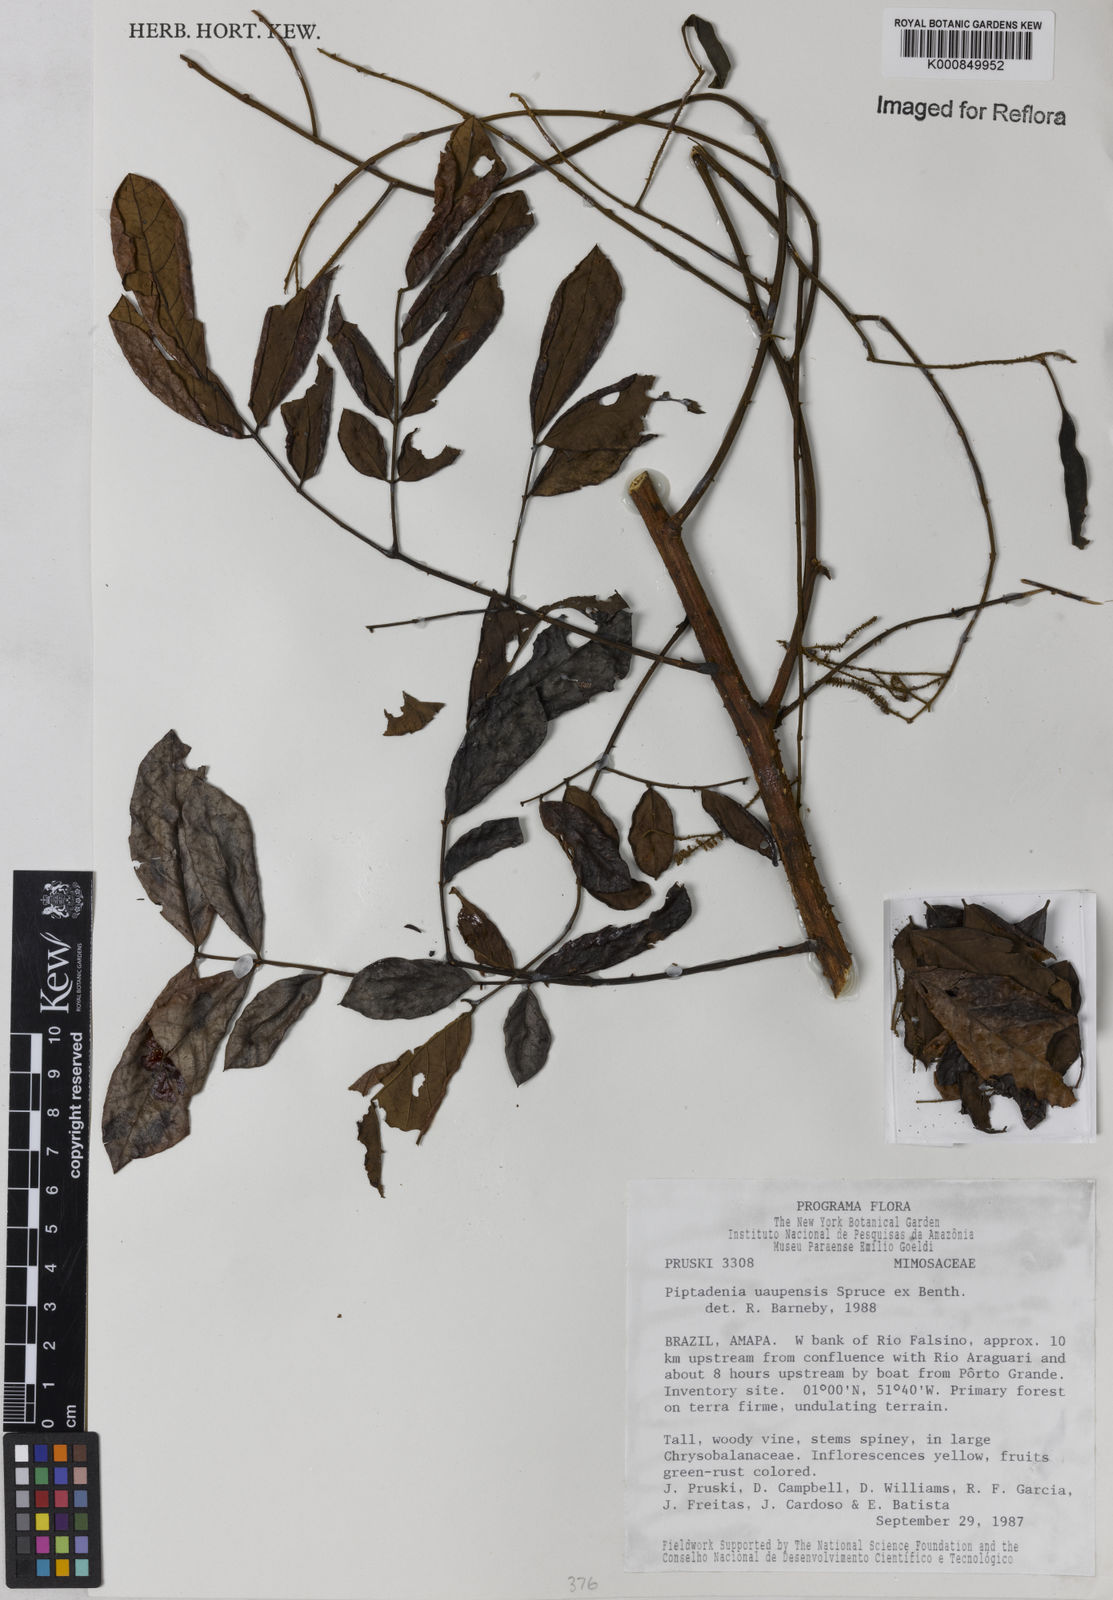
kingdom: Plantae
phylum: Tracheophyta
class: Magnoliopsida
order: Fabales
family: Fabaceae
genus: Piptadenia
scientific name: Piptadenia
